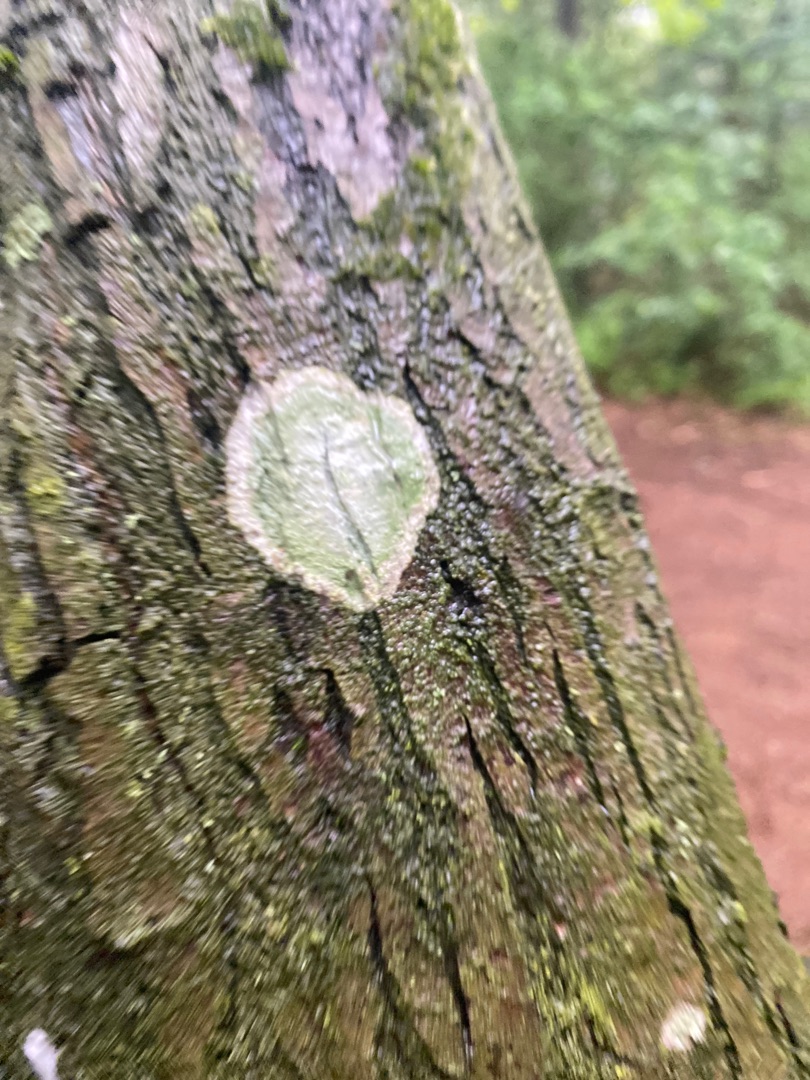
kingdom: Fungi
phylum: Ascomycota
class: Lecanoromycetes
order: Ostropales
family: Phlyctidaceae
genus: Phlyctis
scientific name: Phlyctis argena
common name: Almindelig sølvlav
